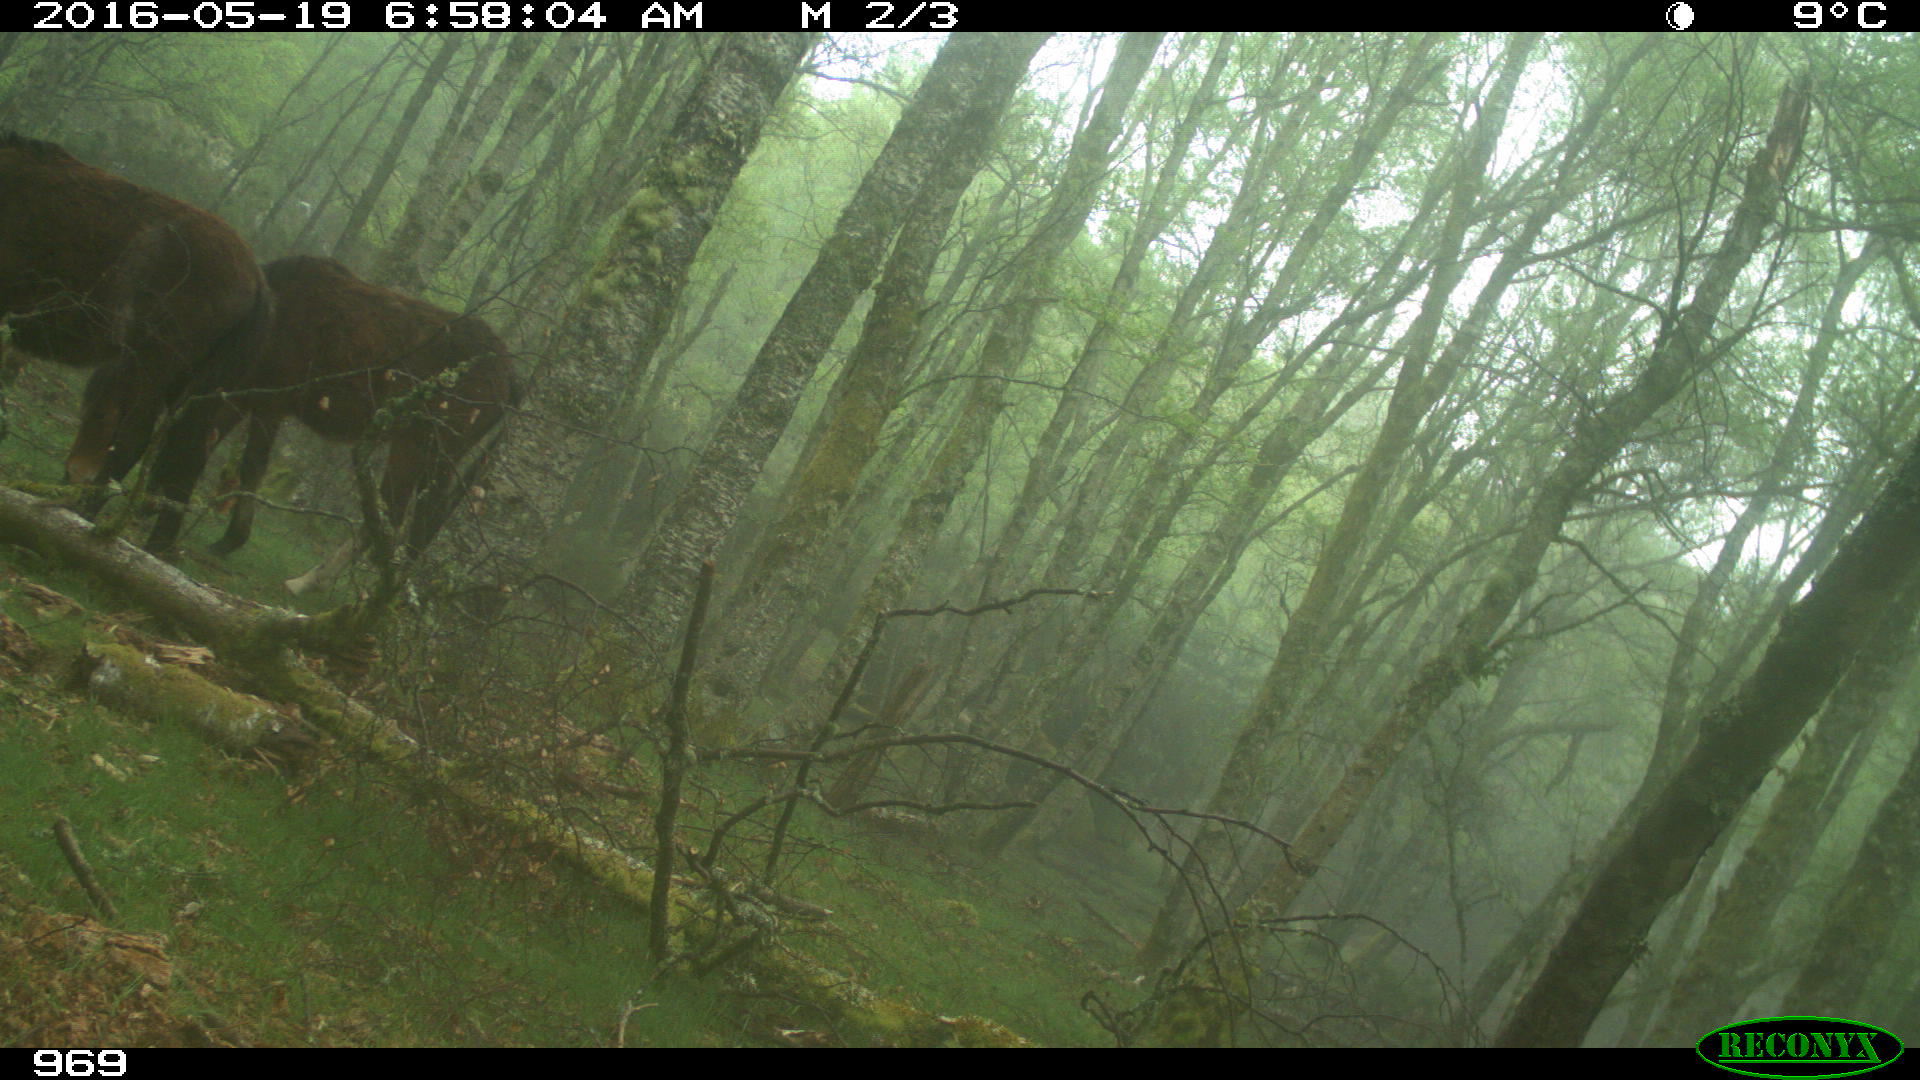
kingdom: Animalia
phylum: Chordata
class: Mammalia
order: Perissodactyla
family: Equidae
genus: Equus
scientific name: Equus caballus
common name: Horse
